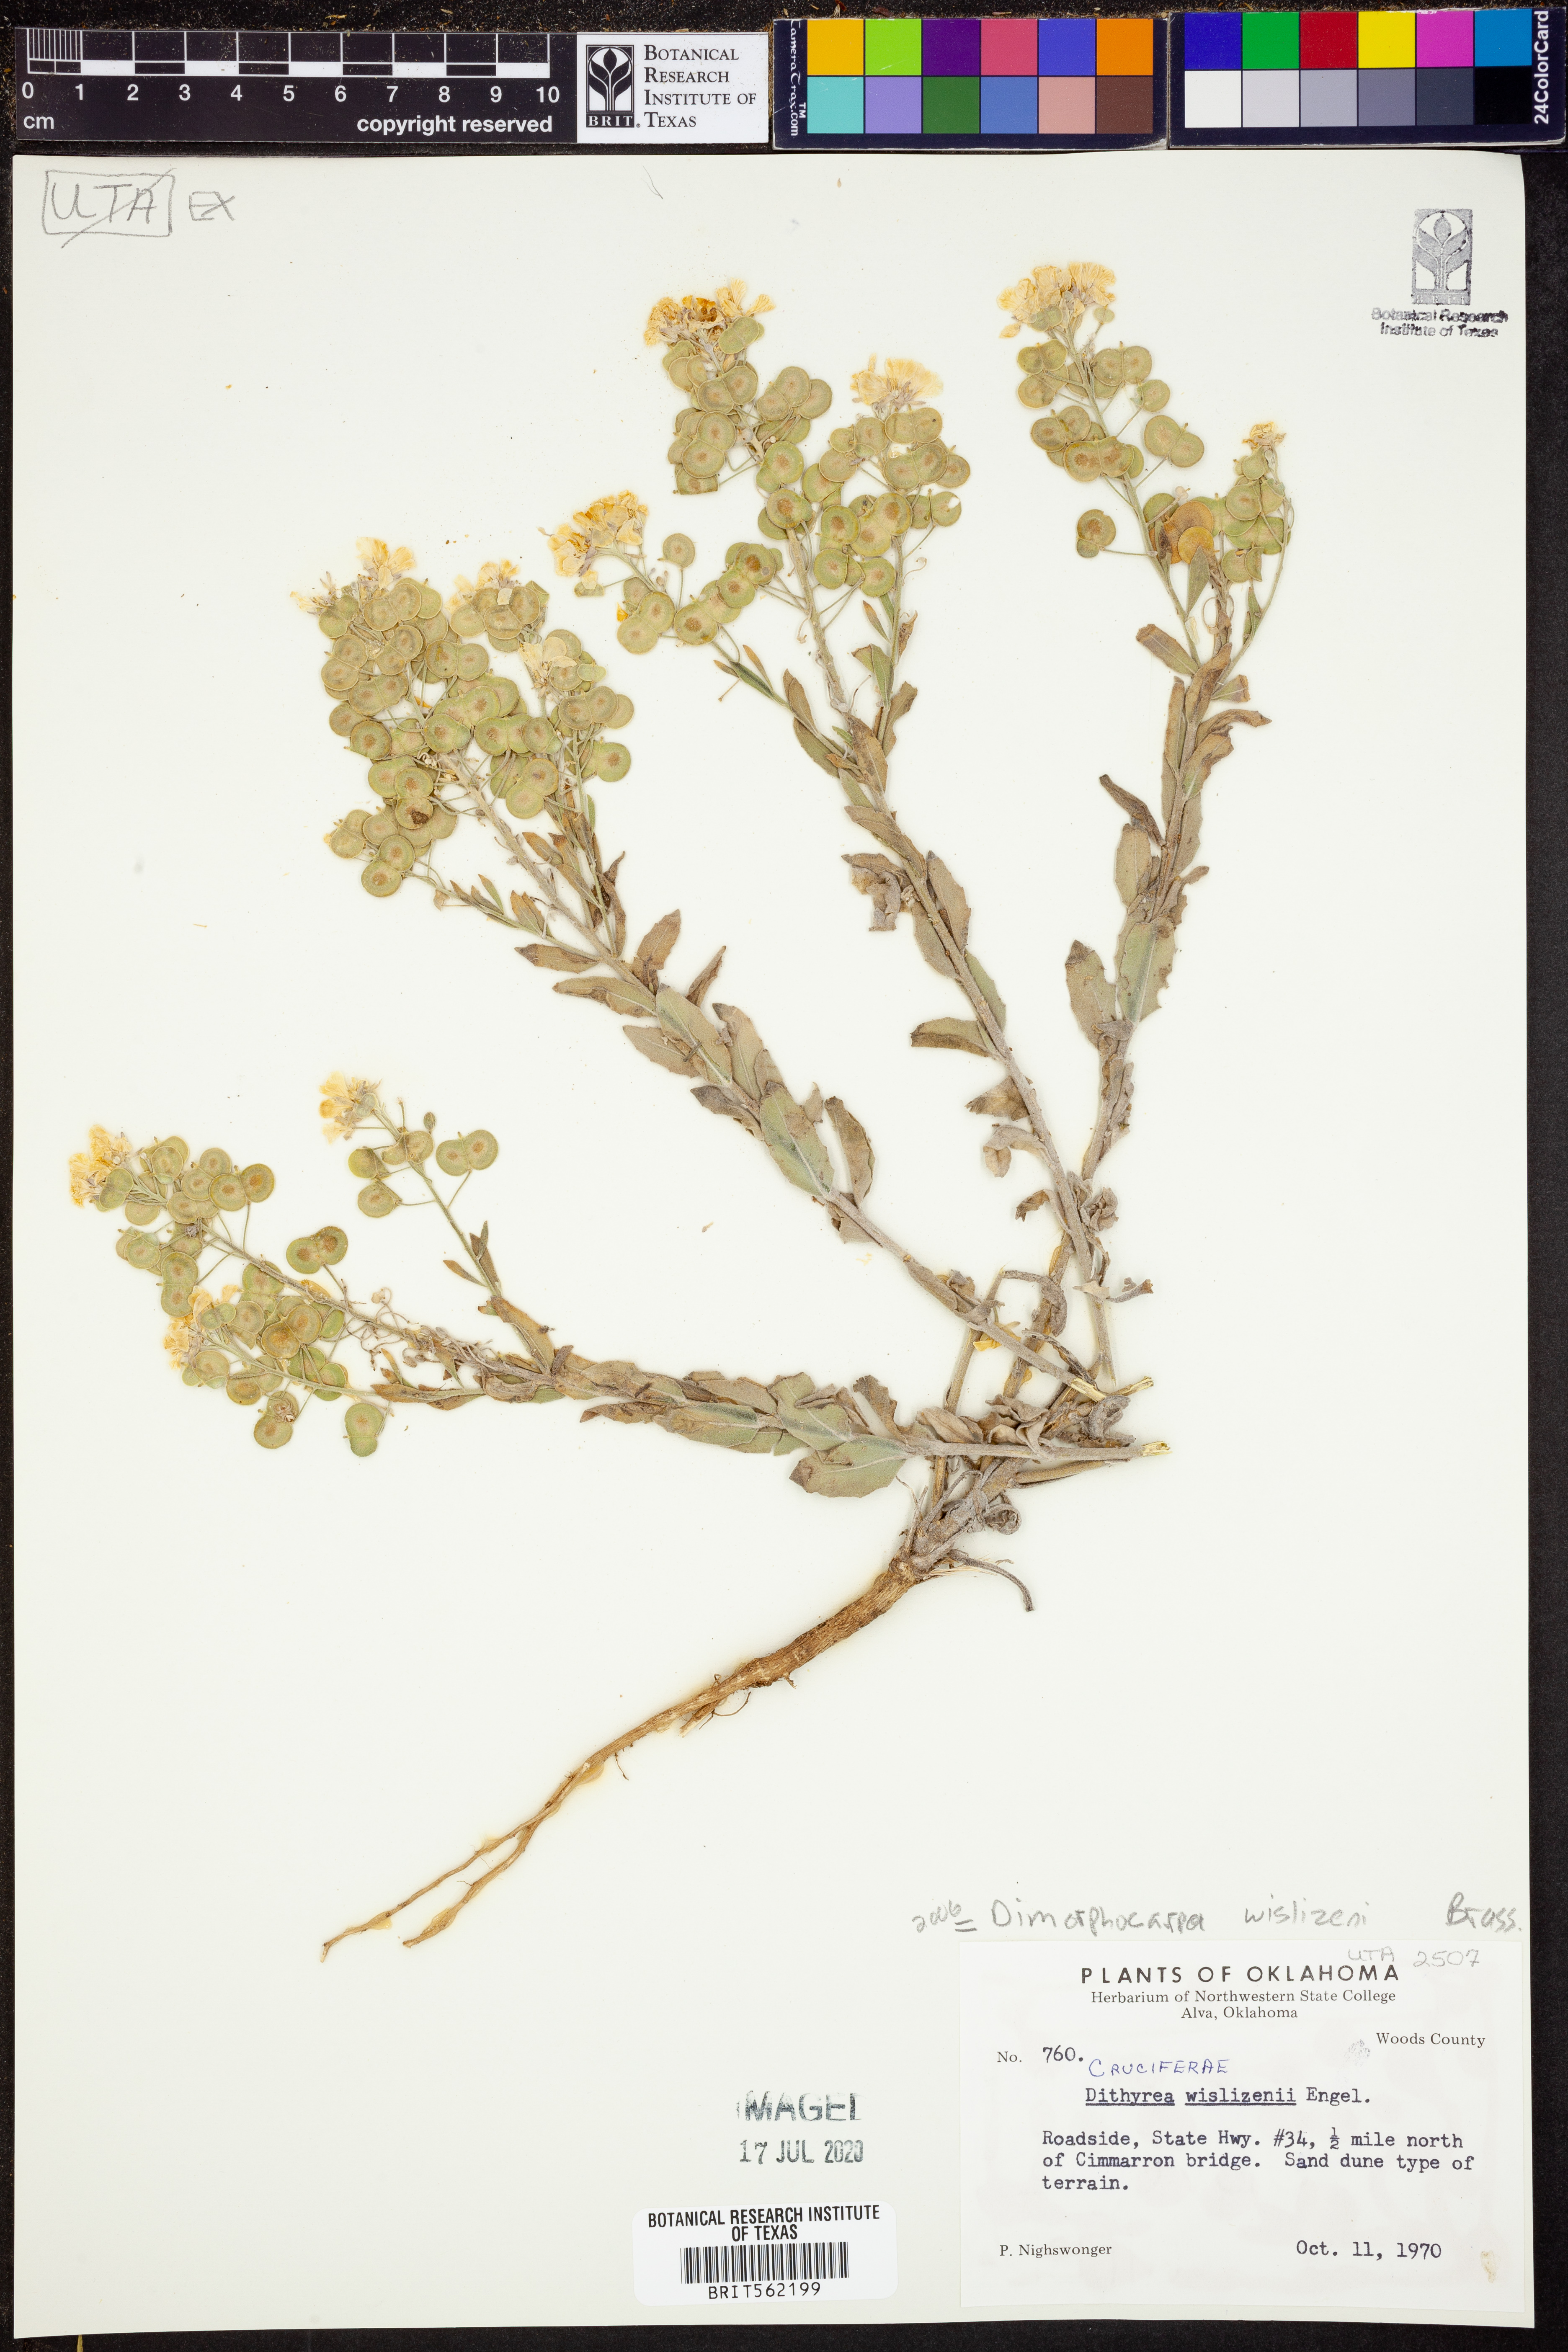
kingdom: Plantae
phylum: Tracheophyta
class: Magnoliopsida
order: Brassicales
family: Brassicaceae
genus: Dimorphocarpa
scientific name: Dimorphocarpa wislizenii
